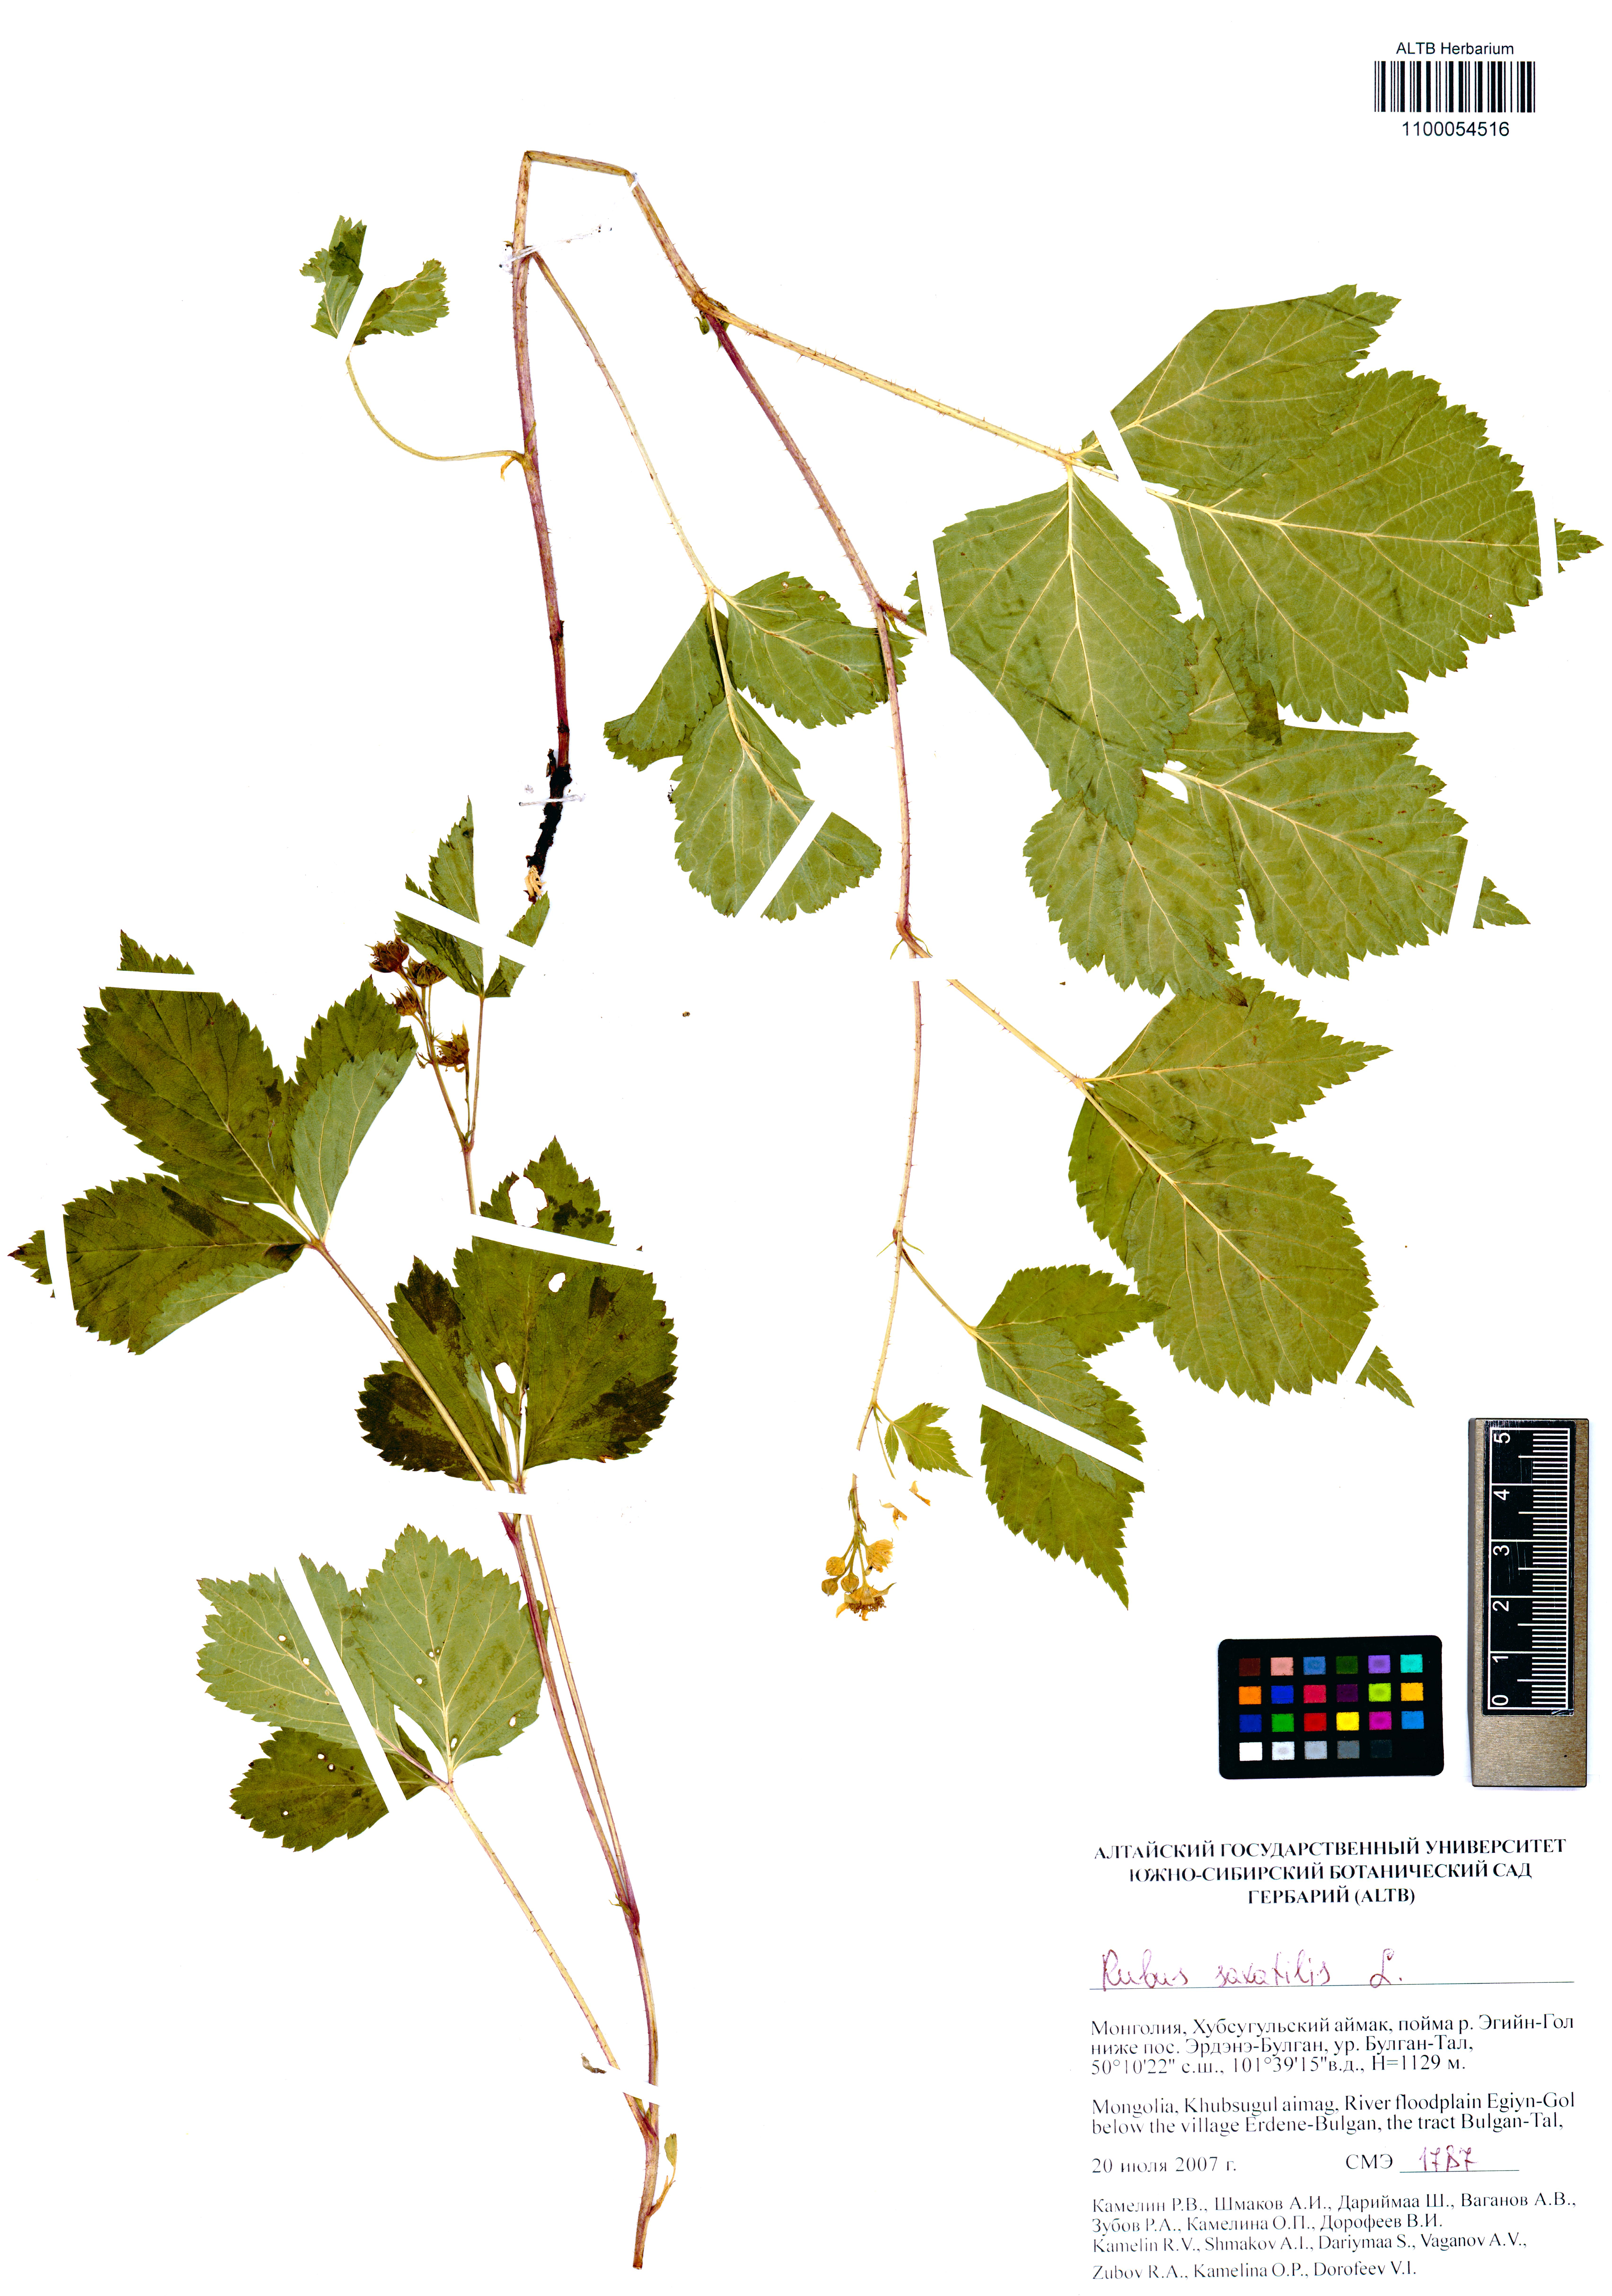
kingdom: Plantae
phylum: Tracheophyta
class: Magnoliopsida
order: Rosales
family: Rosaceae
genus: Rubus
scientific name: Rubus saxatilis
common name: Stone bramble
